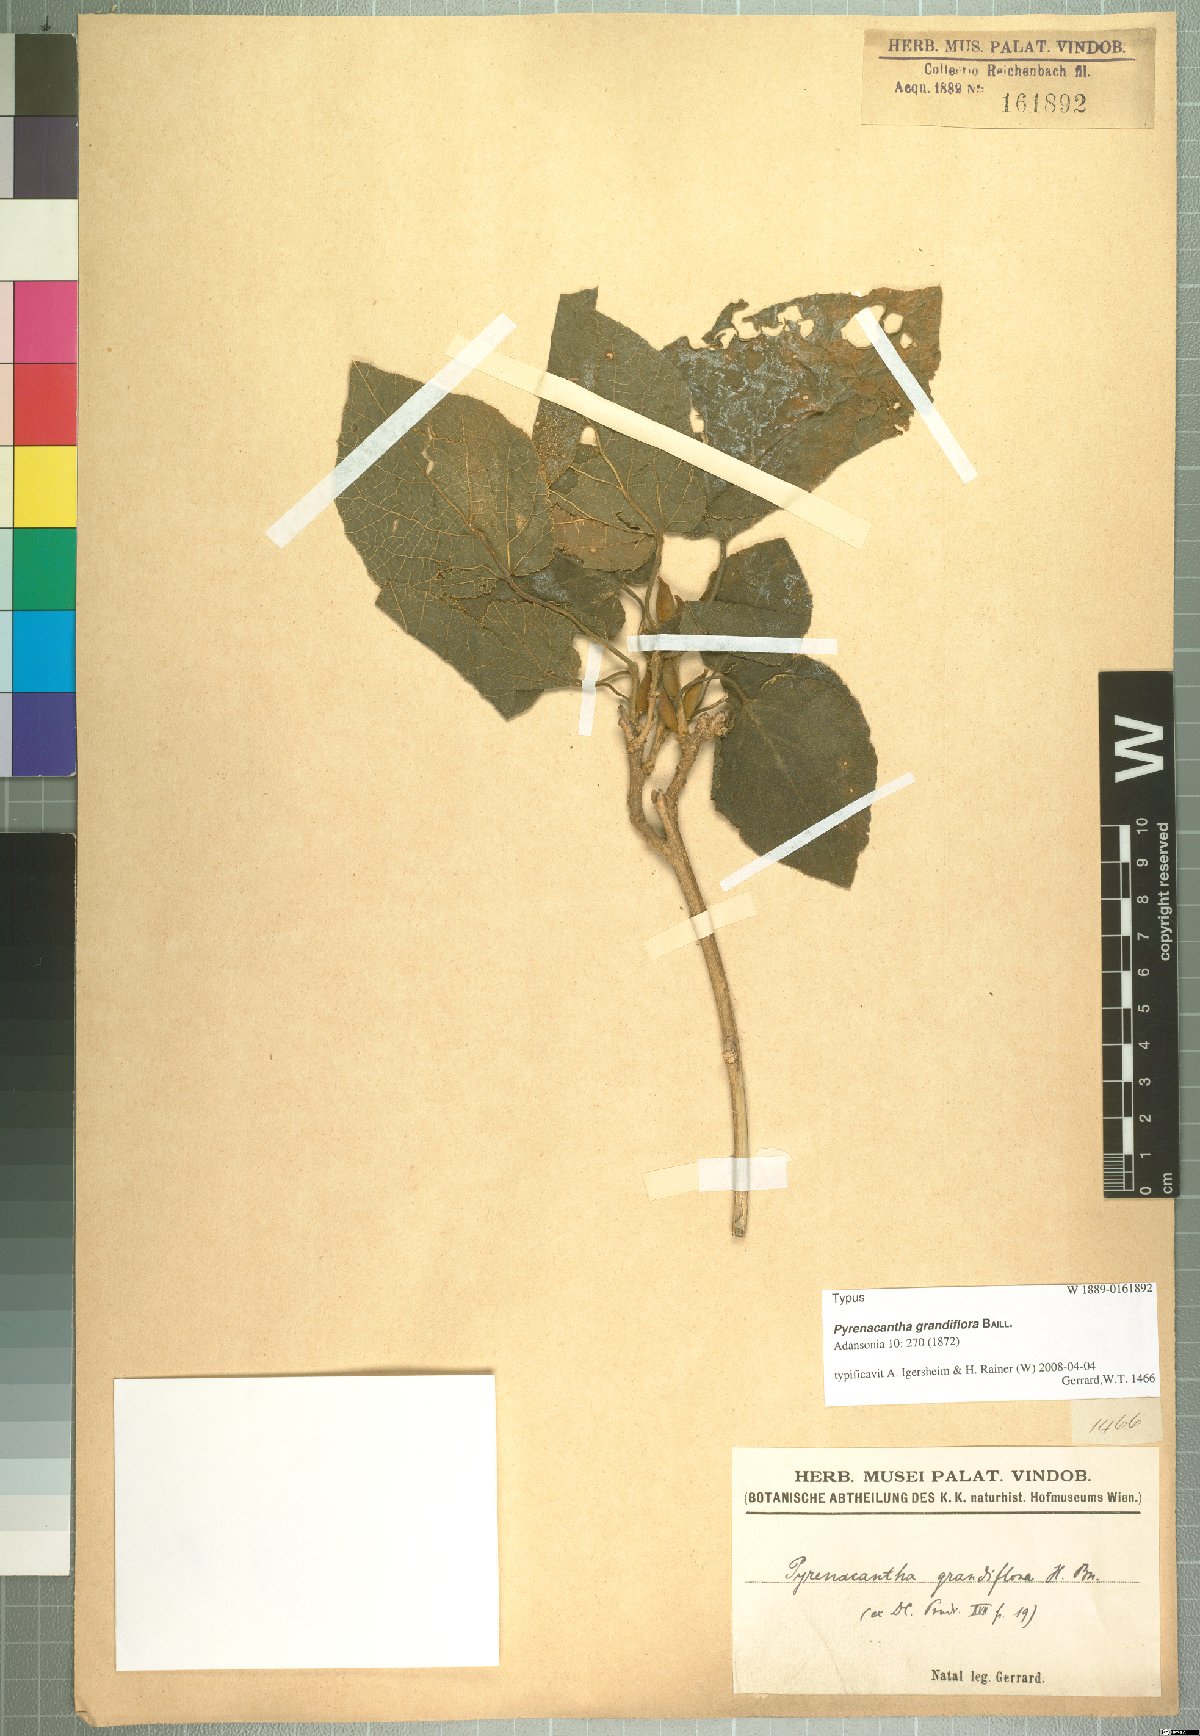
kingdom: Plantae
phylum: Tracheophyta
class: Magnoliopsida
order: Icacinales
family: Icacinaceae
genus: Pyrenacantha
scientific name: Pyrenacantha grandiflora
